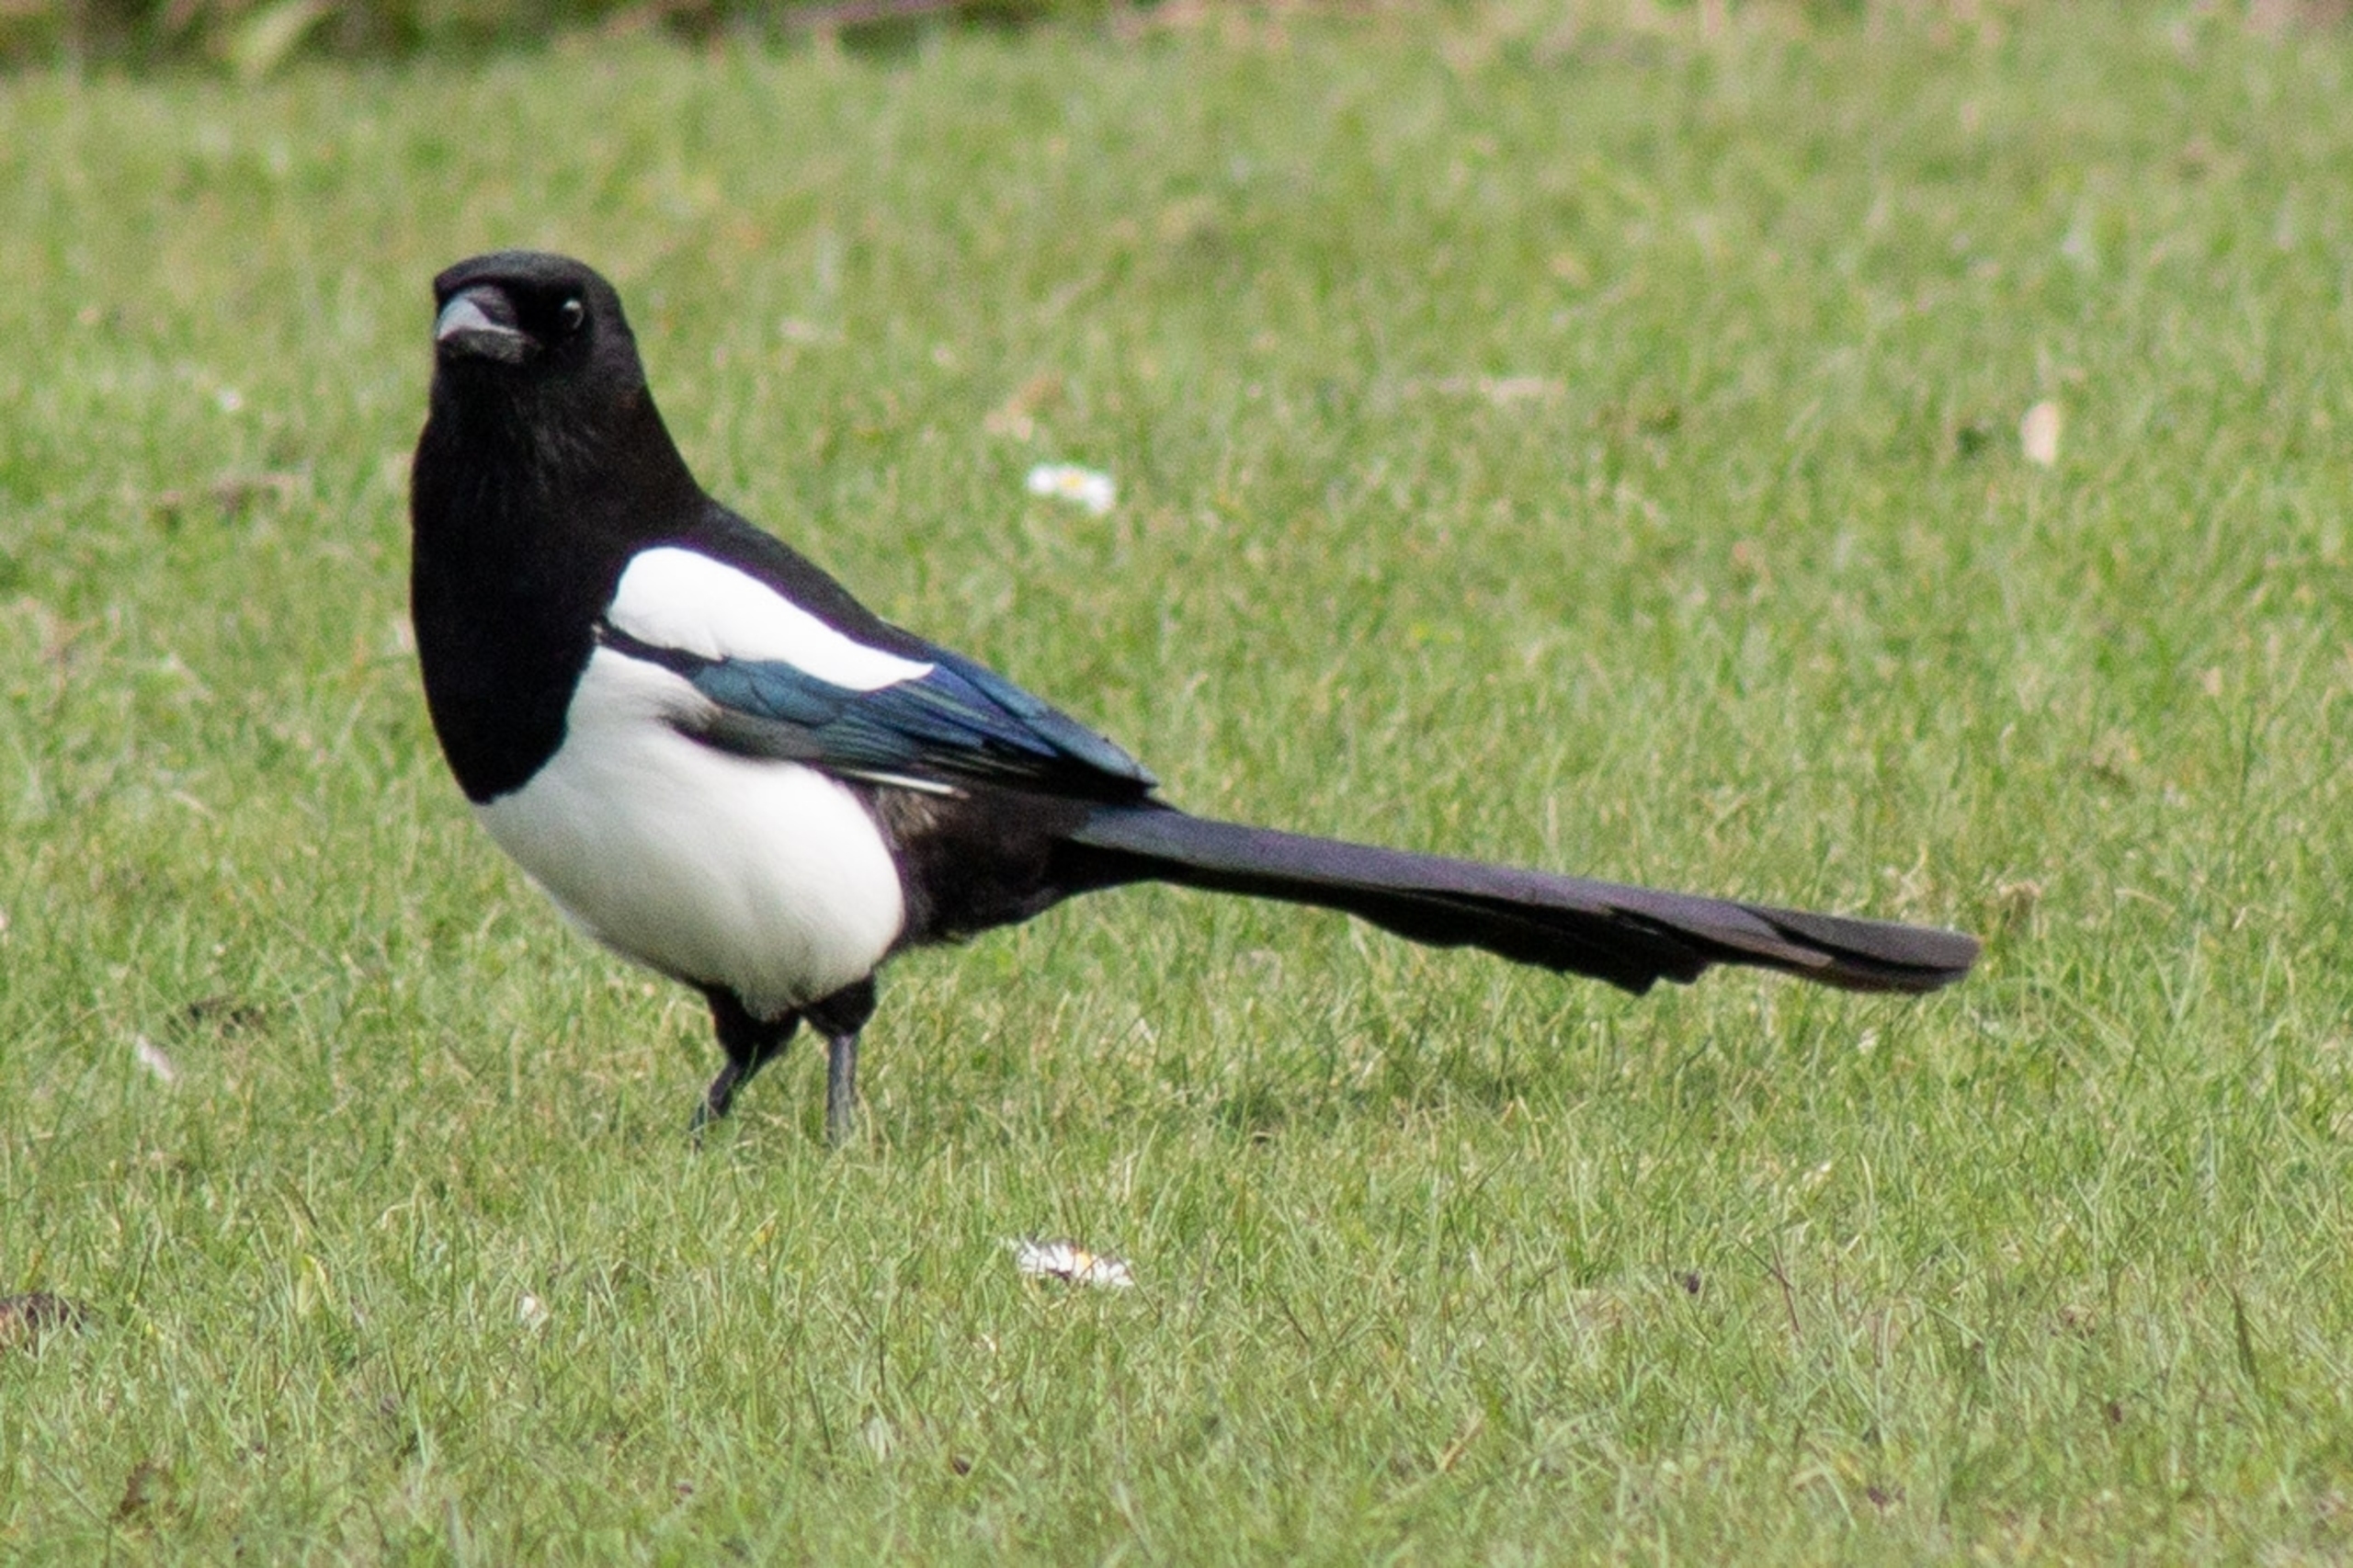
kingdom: Animalia
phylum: Chordata
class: Aves
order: Passeriformes
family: Corvidae
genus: Pica
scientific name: Pica pica
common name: Husskade
